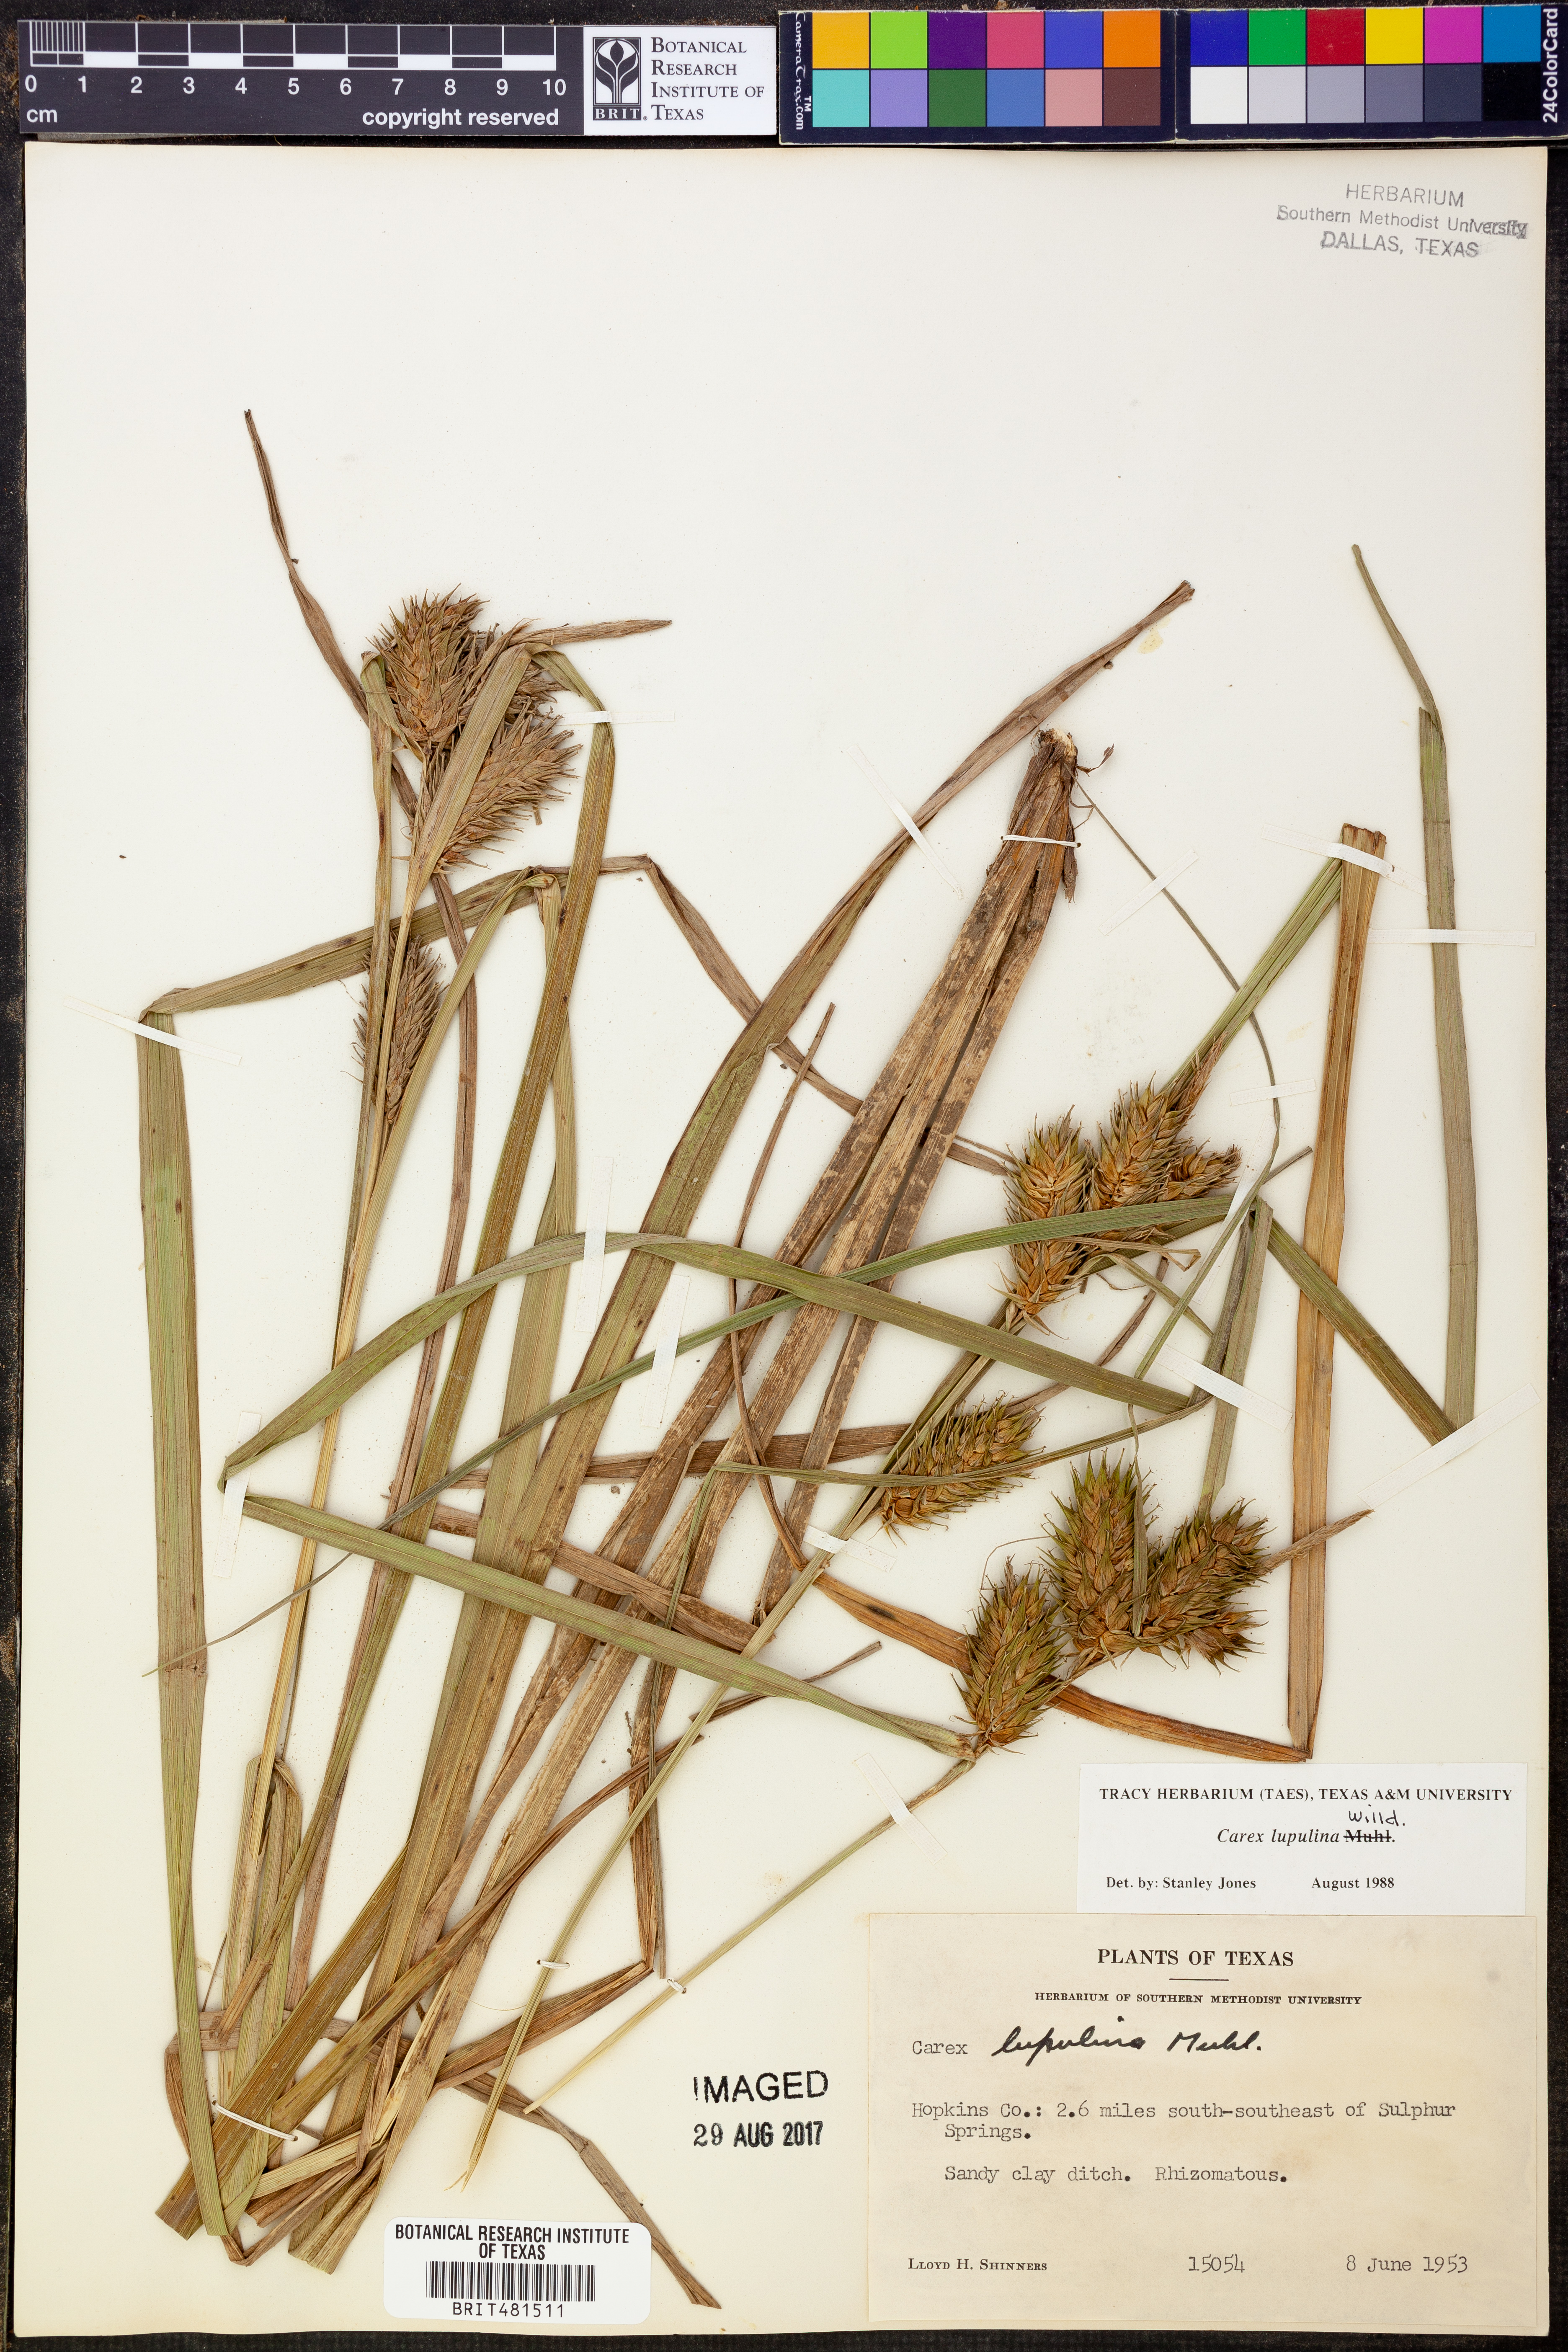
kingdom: Plantae
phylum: Tracheophyta
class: Liliopsida
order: Poales
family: Cyperaceae
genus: Carex
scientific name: Carex lupulina
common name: Hop sedge
